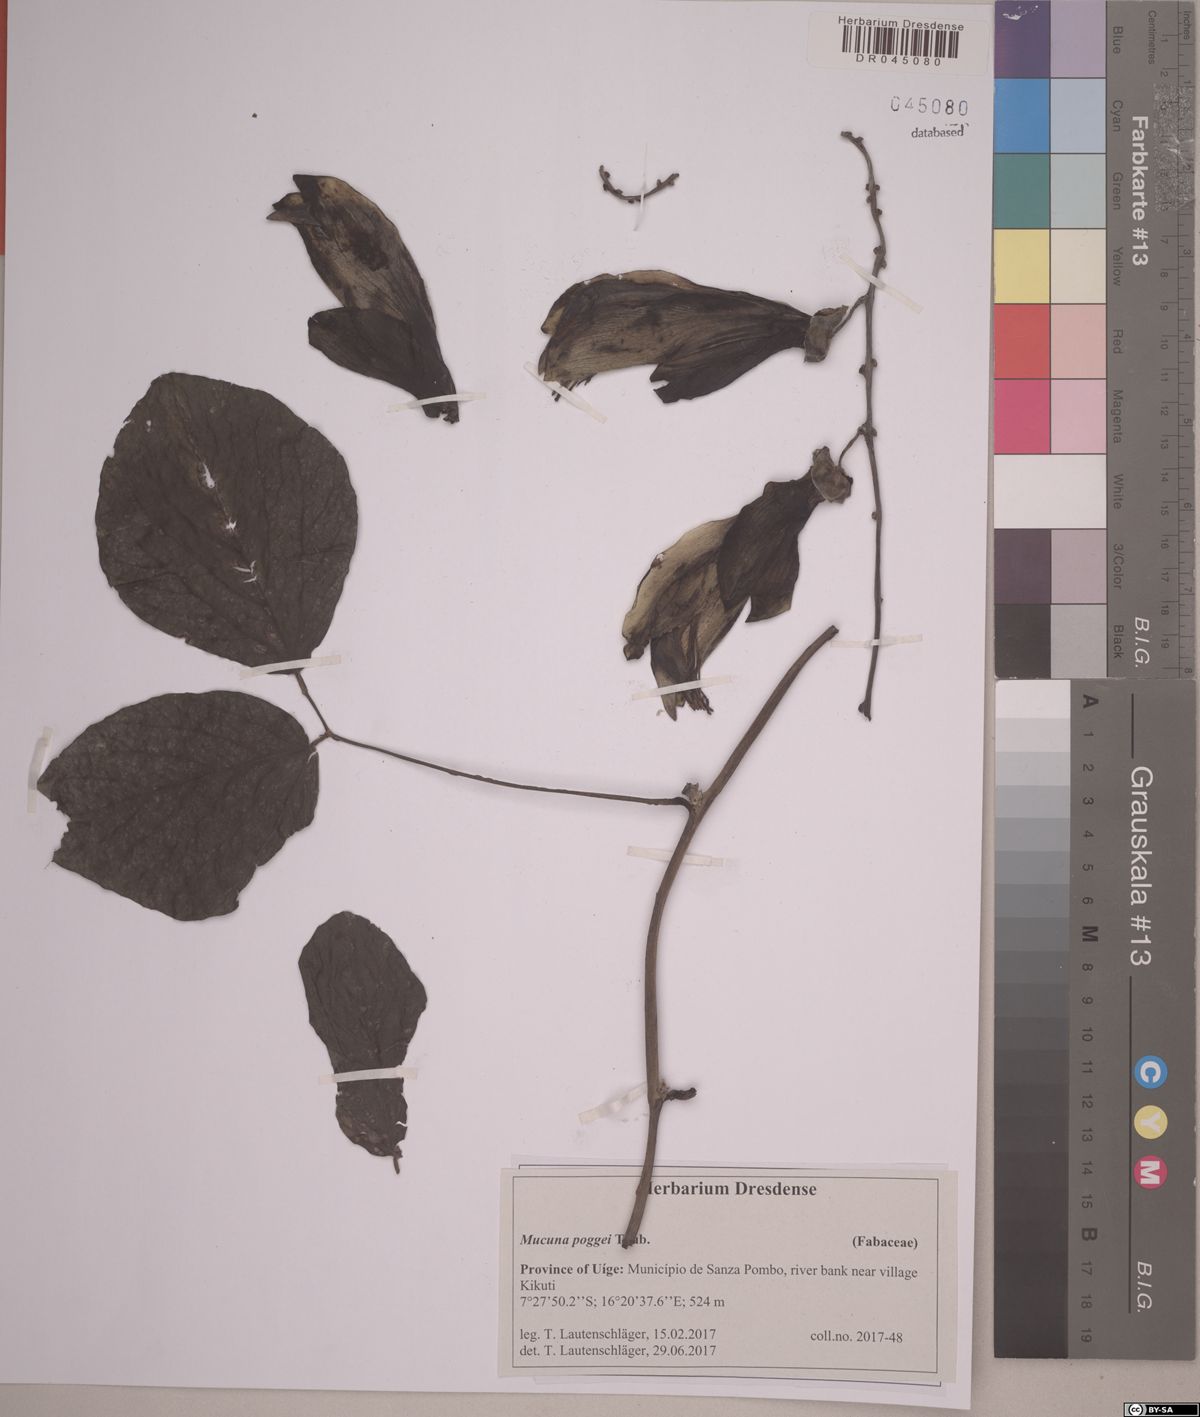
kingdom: Plantae
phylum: Tracheophyta
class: Magnoliopsida
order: Fabales
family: Fabaceae
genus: Mucuna
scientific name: Mucuna poggei
